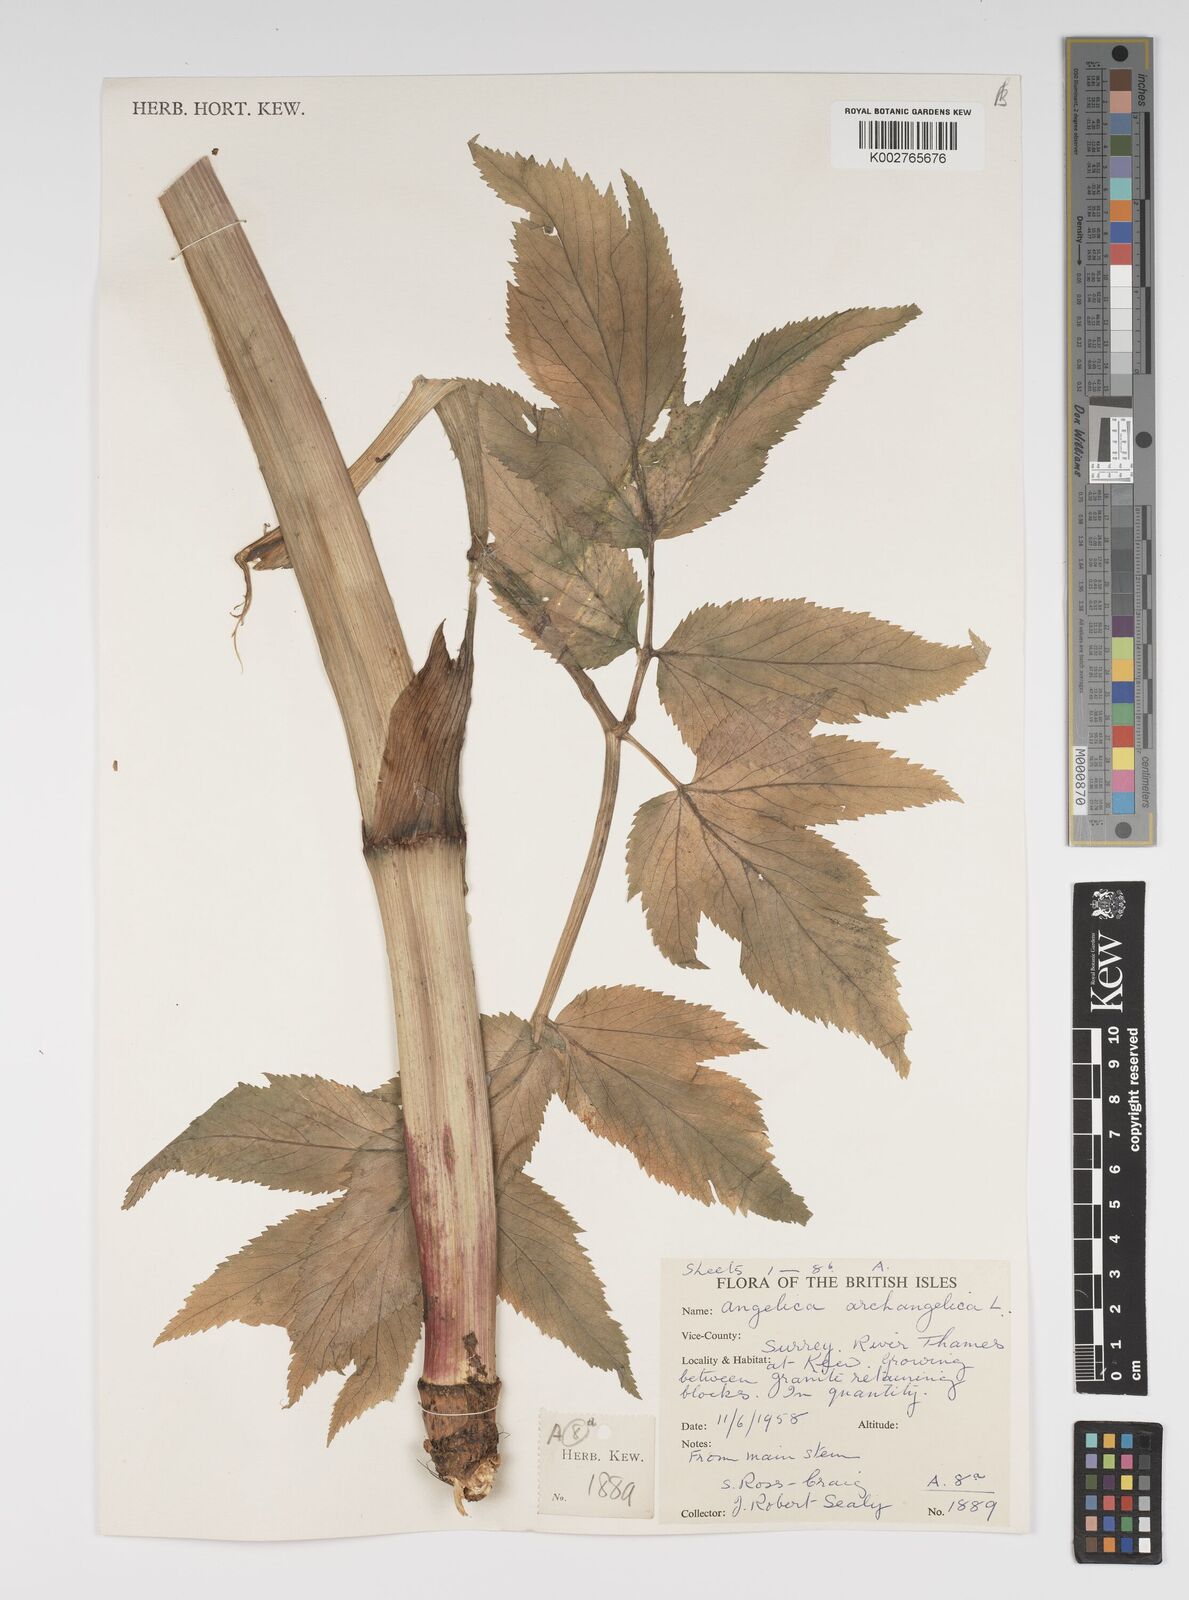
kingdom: Plantae
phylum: Tracheophyta
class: Magnoliopsida
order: Apiales
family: Apiaceae
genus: Angelica
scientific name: Angelica archangelica
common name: Garden angelica
